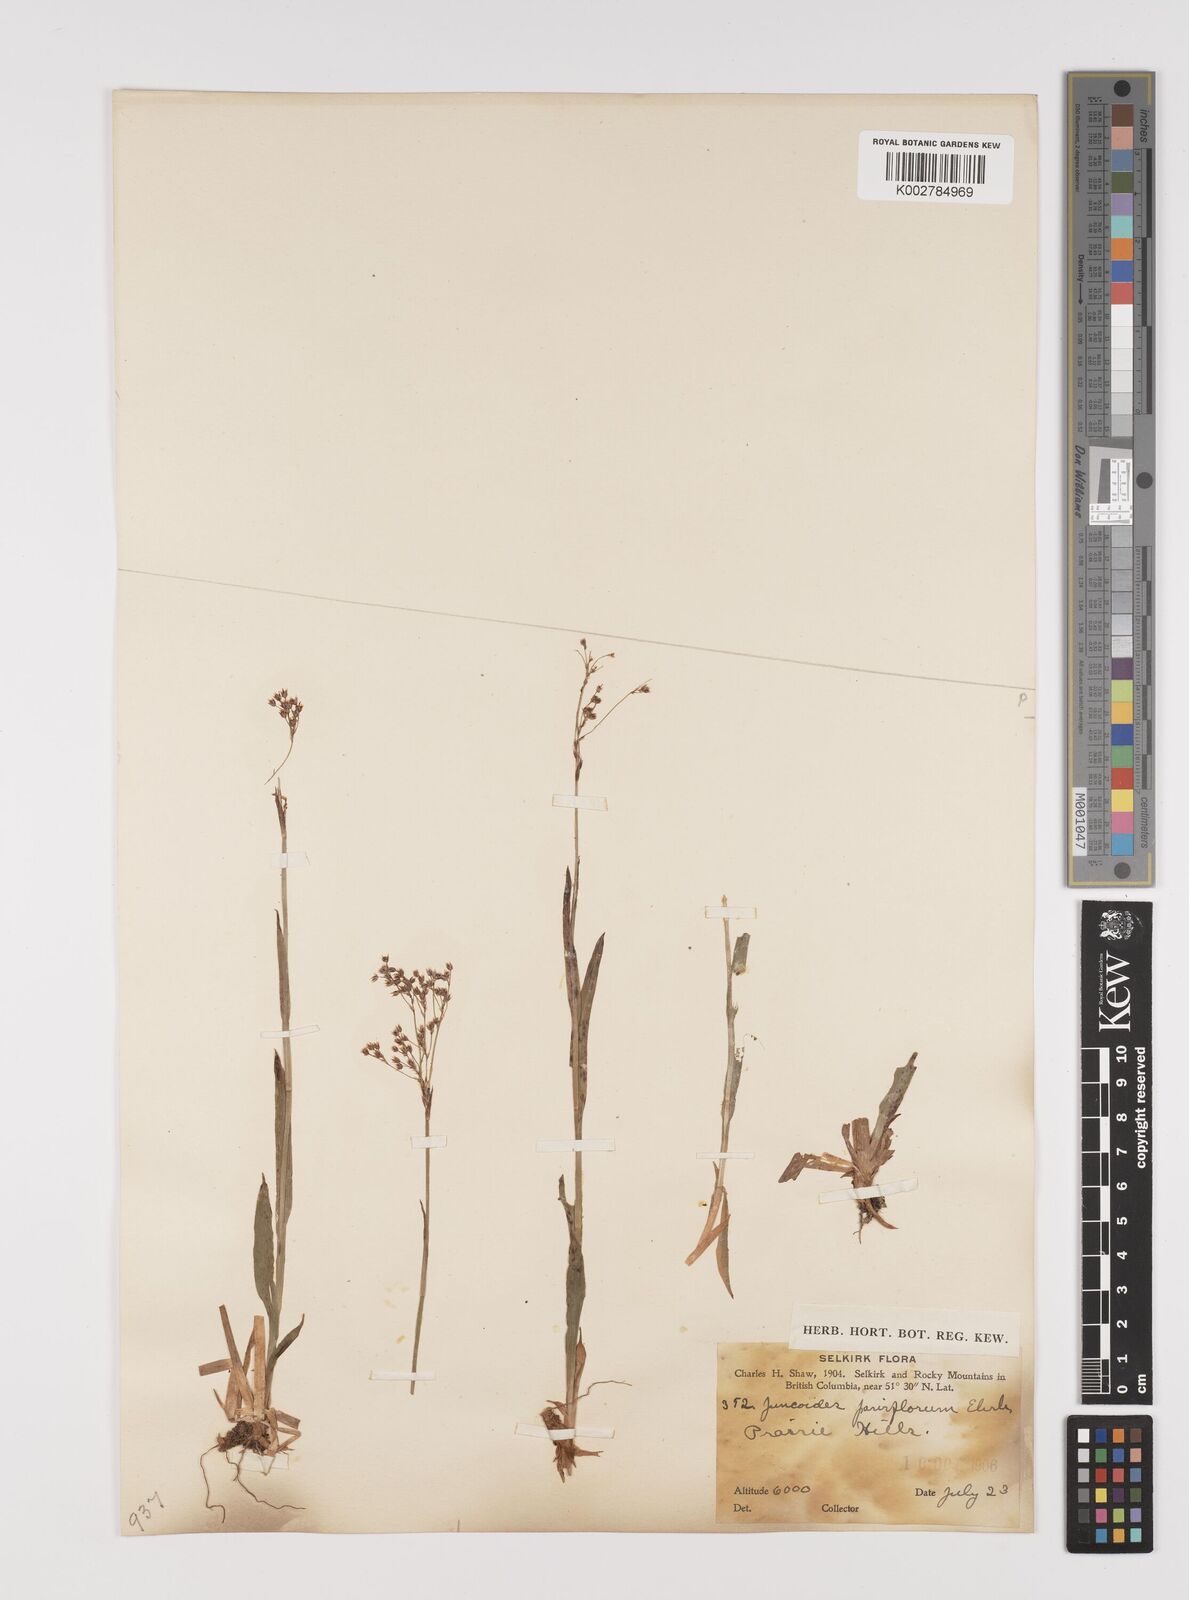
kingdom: Plantae
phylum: Tracheophyta
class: Liliopsida
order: Poales
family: Juncaceae
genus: Luzula
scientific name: Luzula parviflora
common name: Millet woodrush
